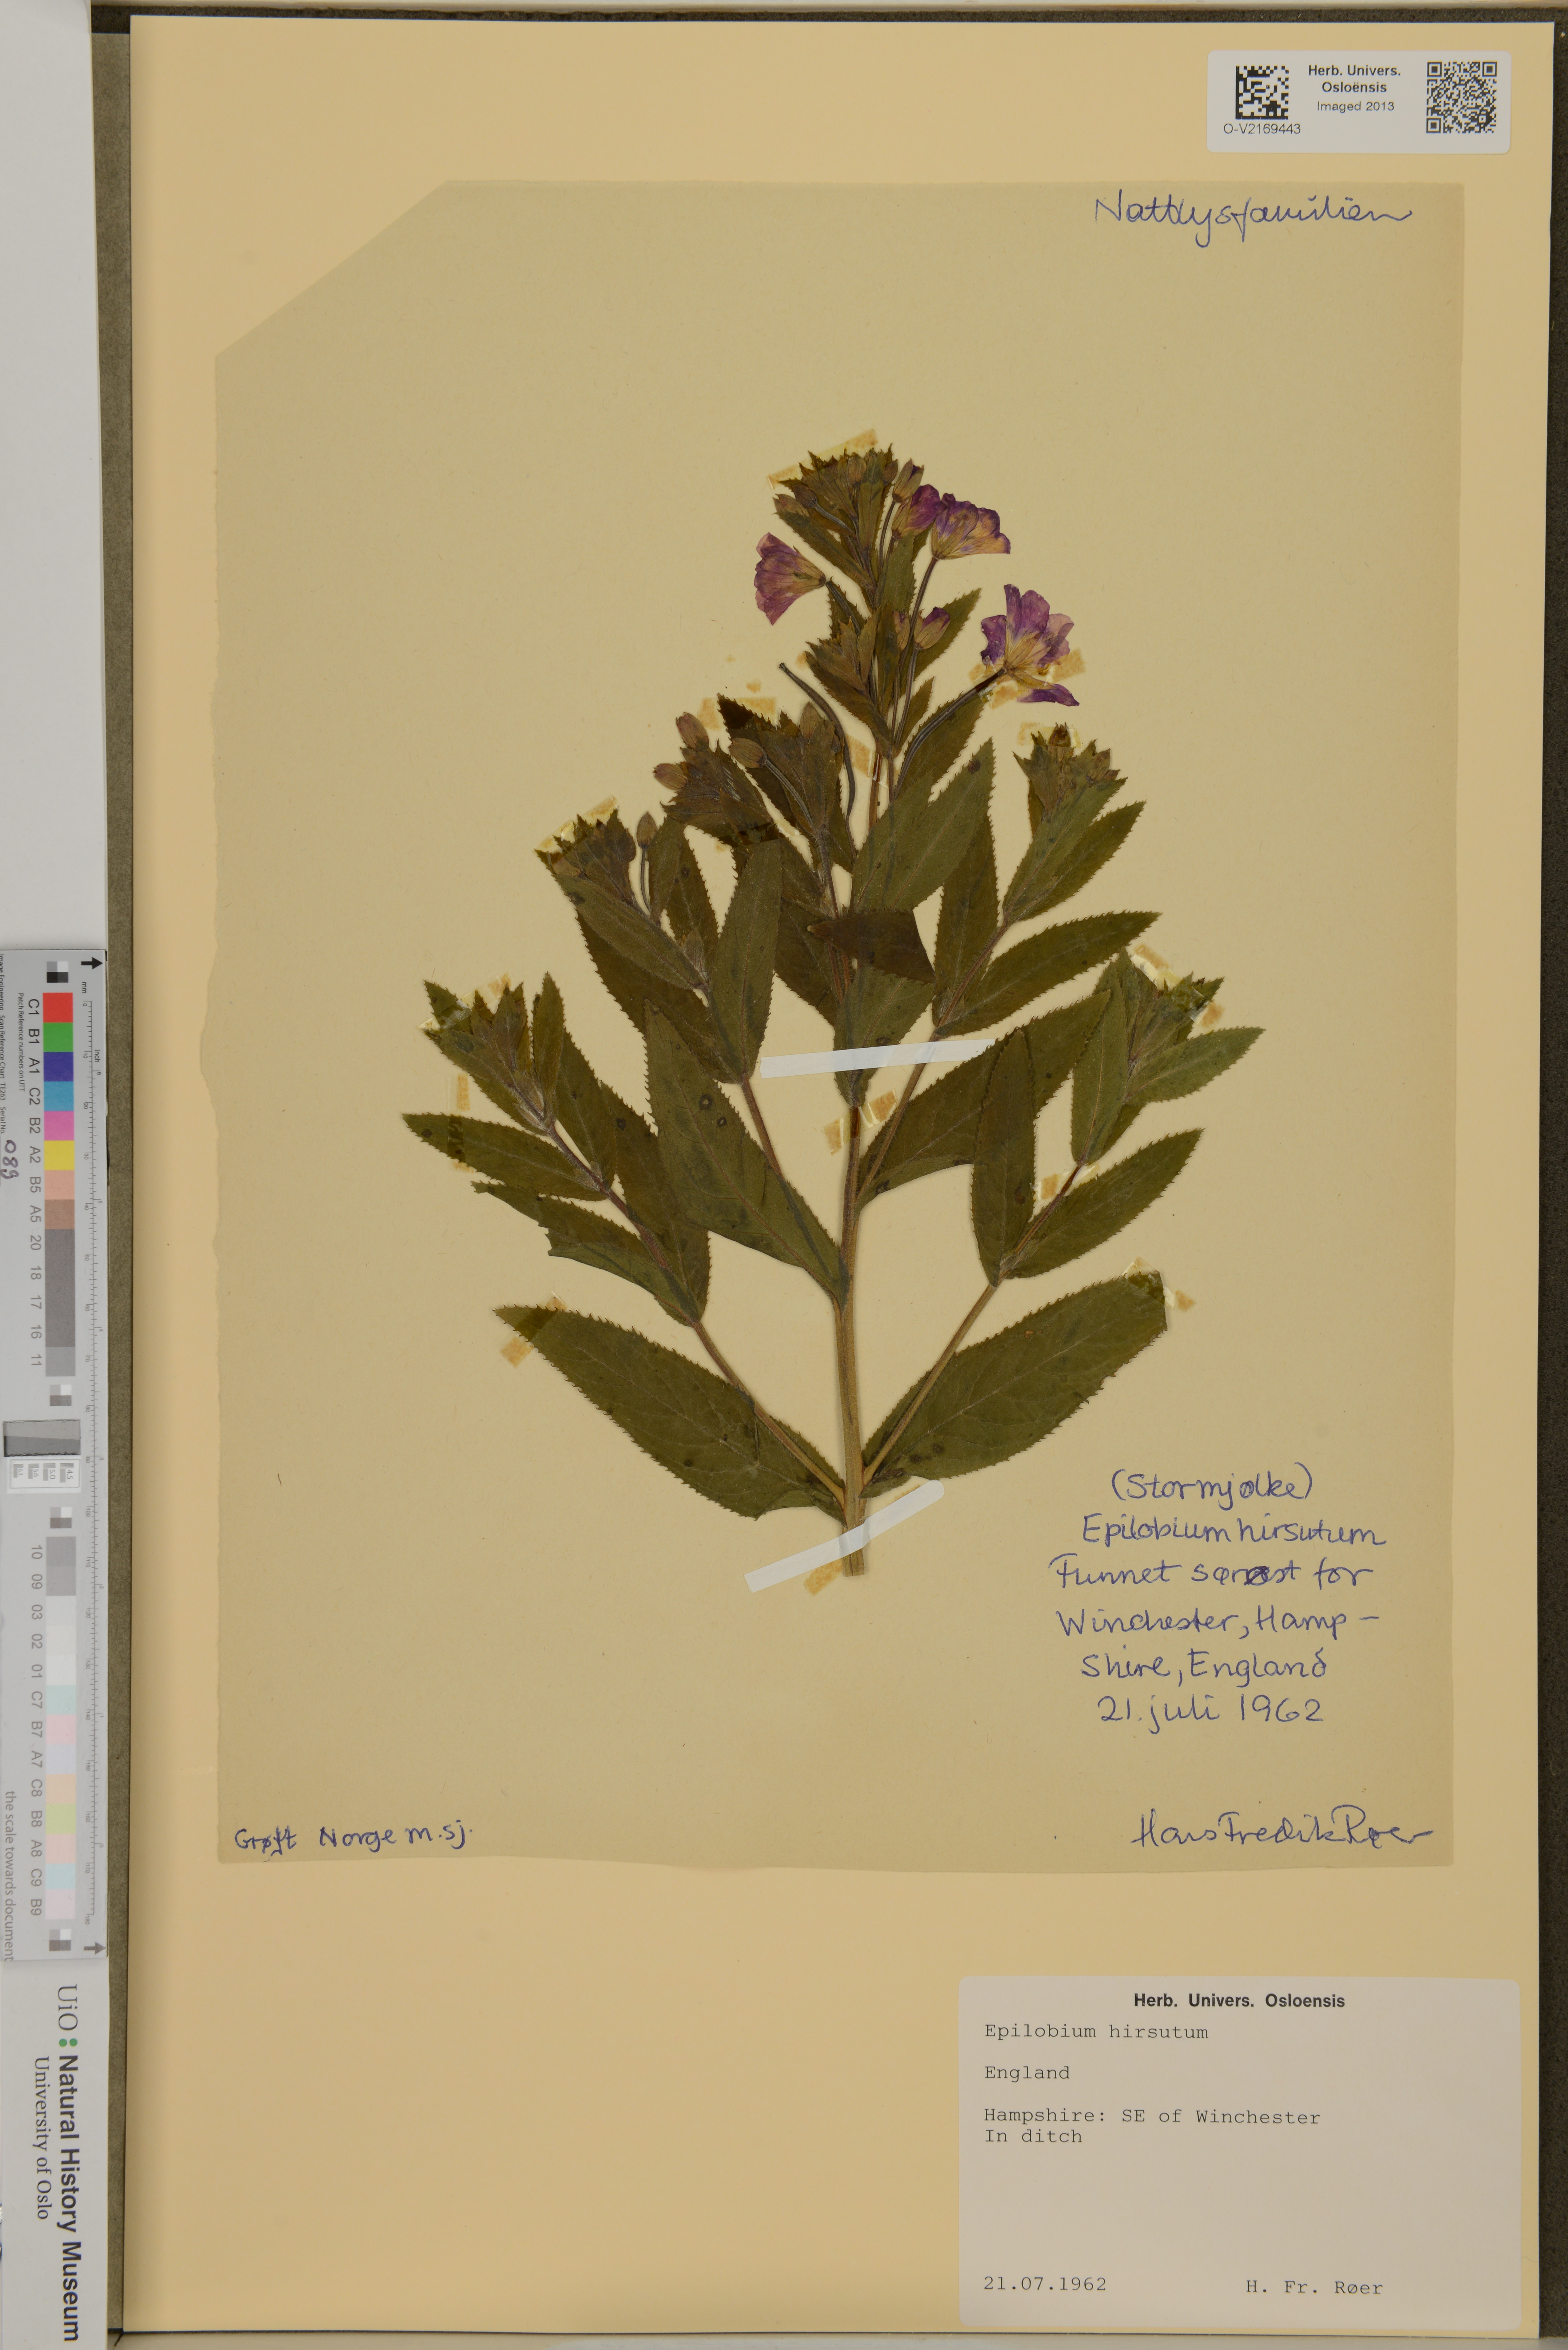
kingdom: Plantae
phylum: Tracheophyta
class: Magnoliopsida
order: Myrtales
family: Onagraceae
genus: Epilobium
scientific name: Epilobium hirsutum
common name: Great willowherb
